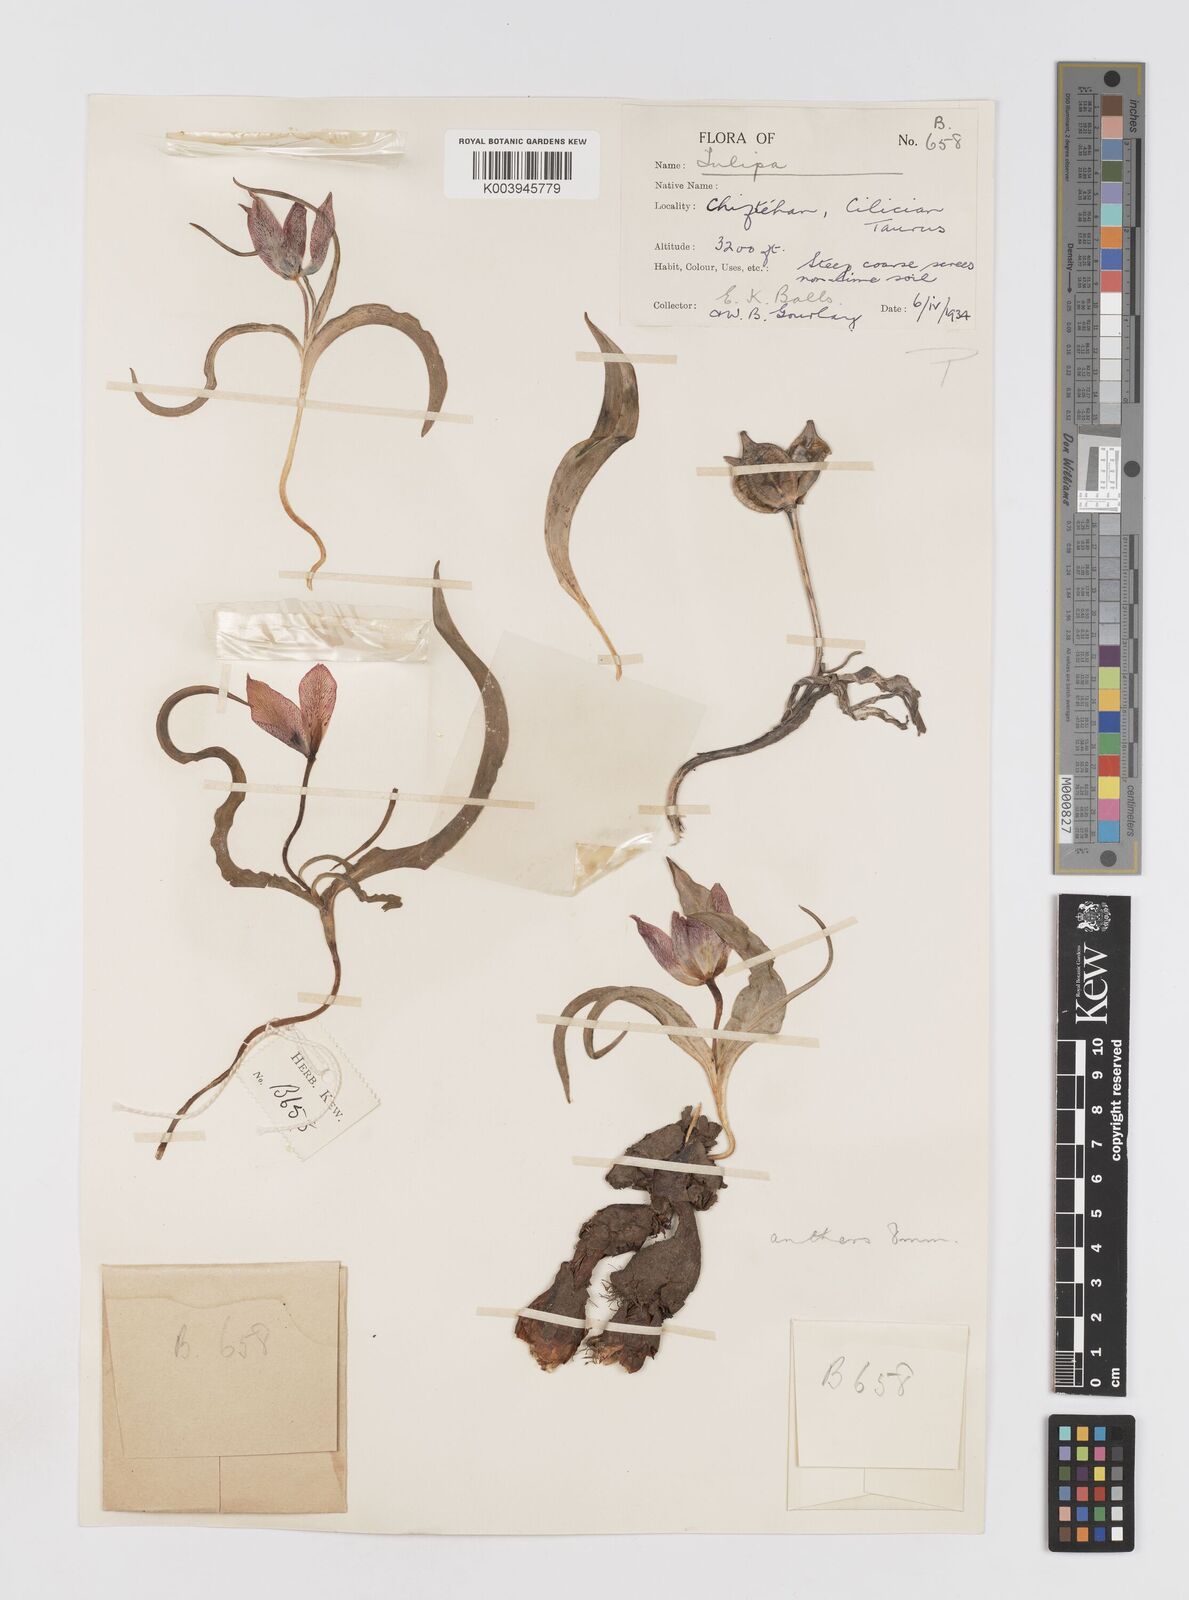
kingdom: Plantae
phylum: Tracheophyta
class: Liliopsida
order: Liliales
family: Liliaceae
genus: Tulipa
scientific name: Tulipa foliosa
